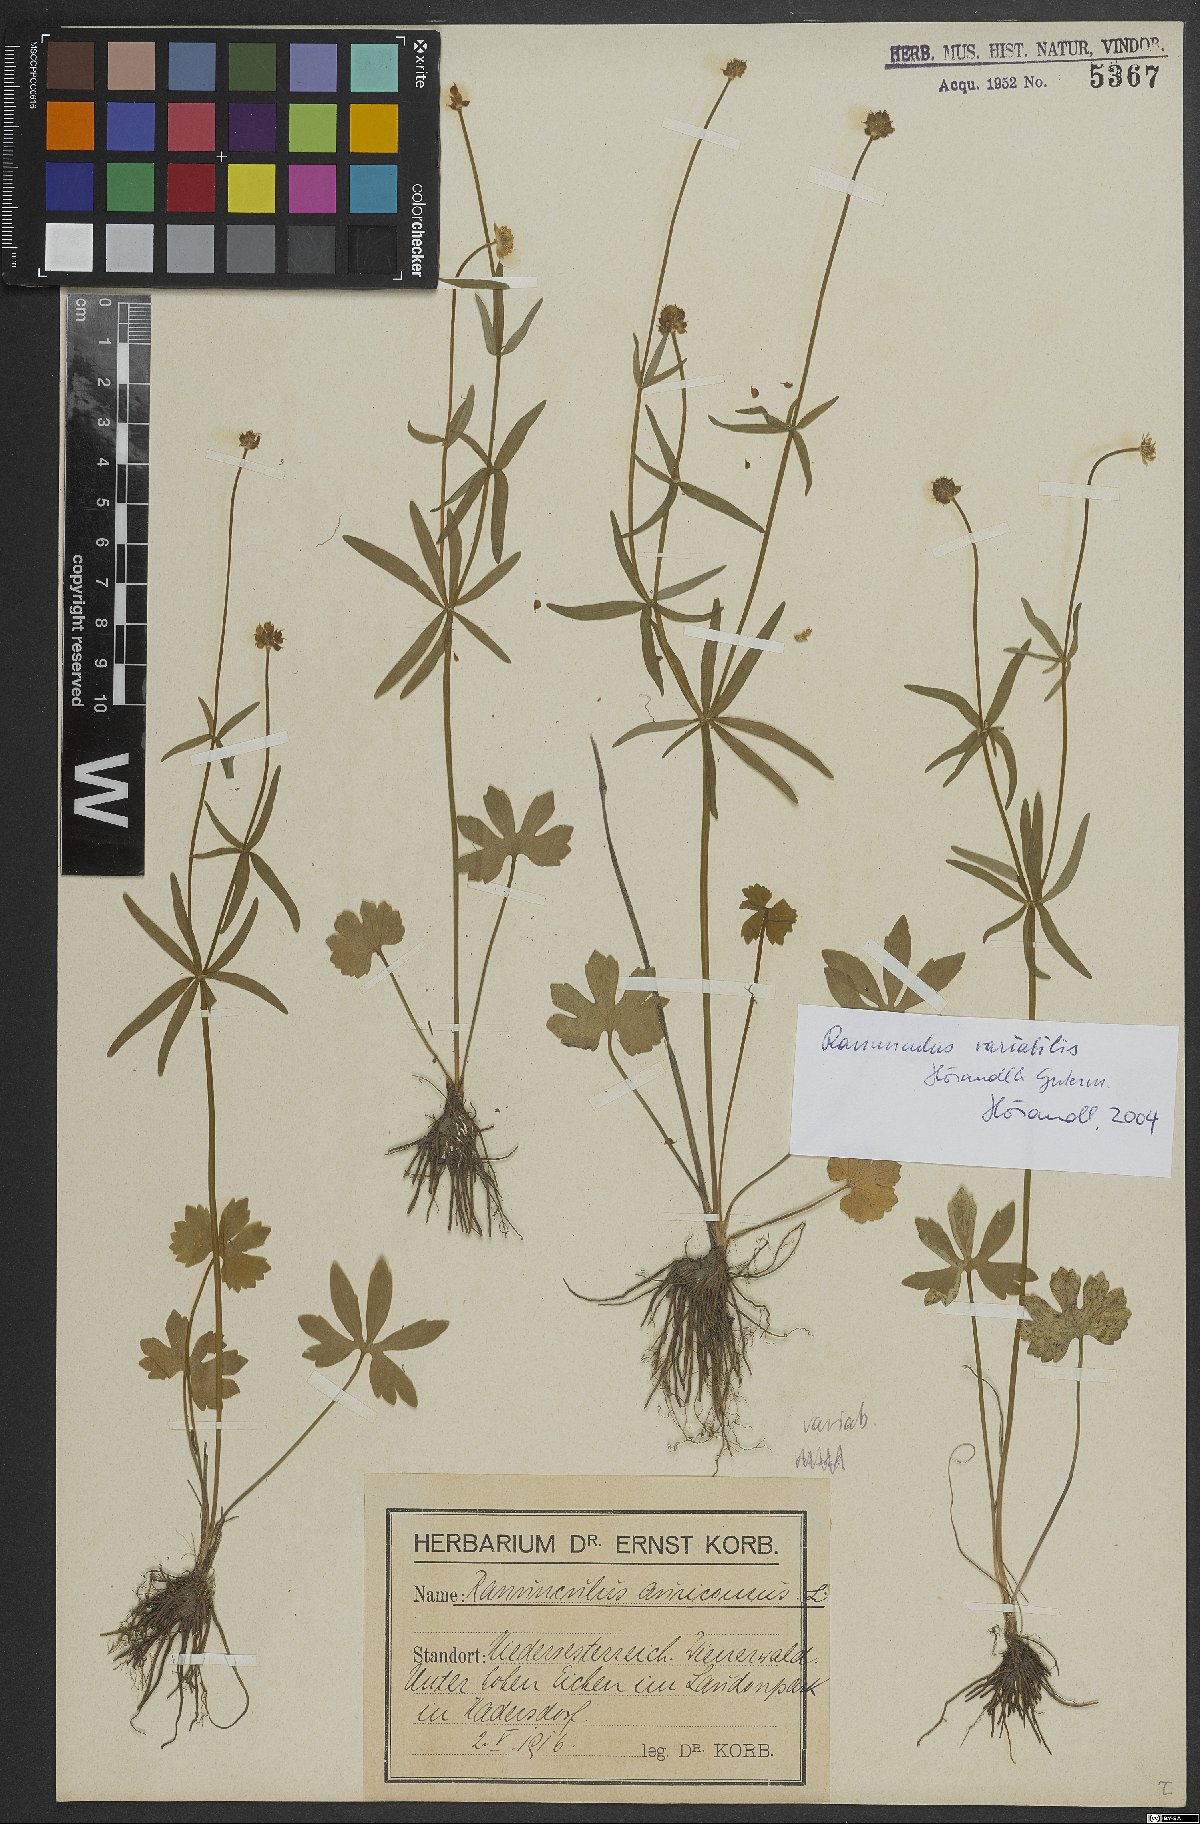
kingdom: Plantae
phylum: Tracheophyta
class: Magnoliopsida
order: Ranunculales
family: Ranunculaceae
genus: Ranunculus
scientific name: Ranunculus variabilis
